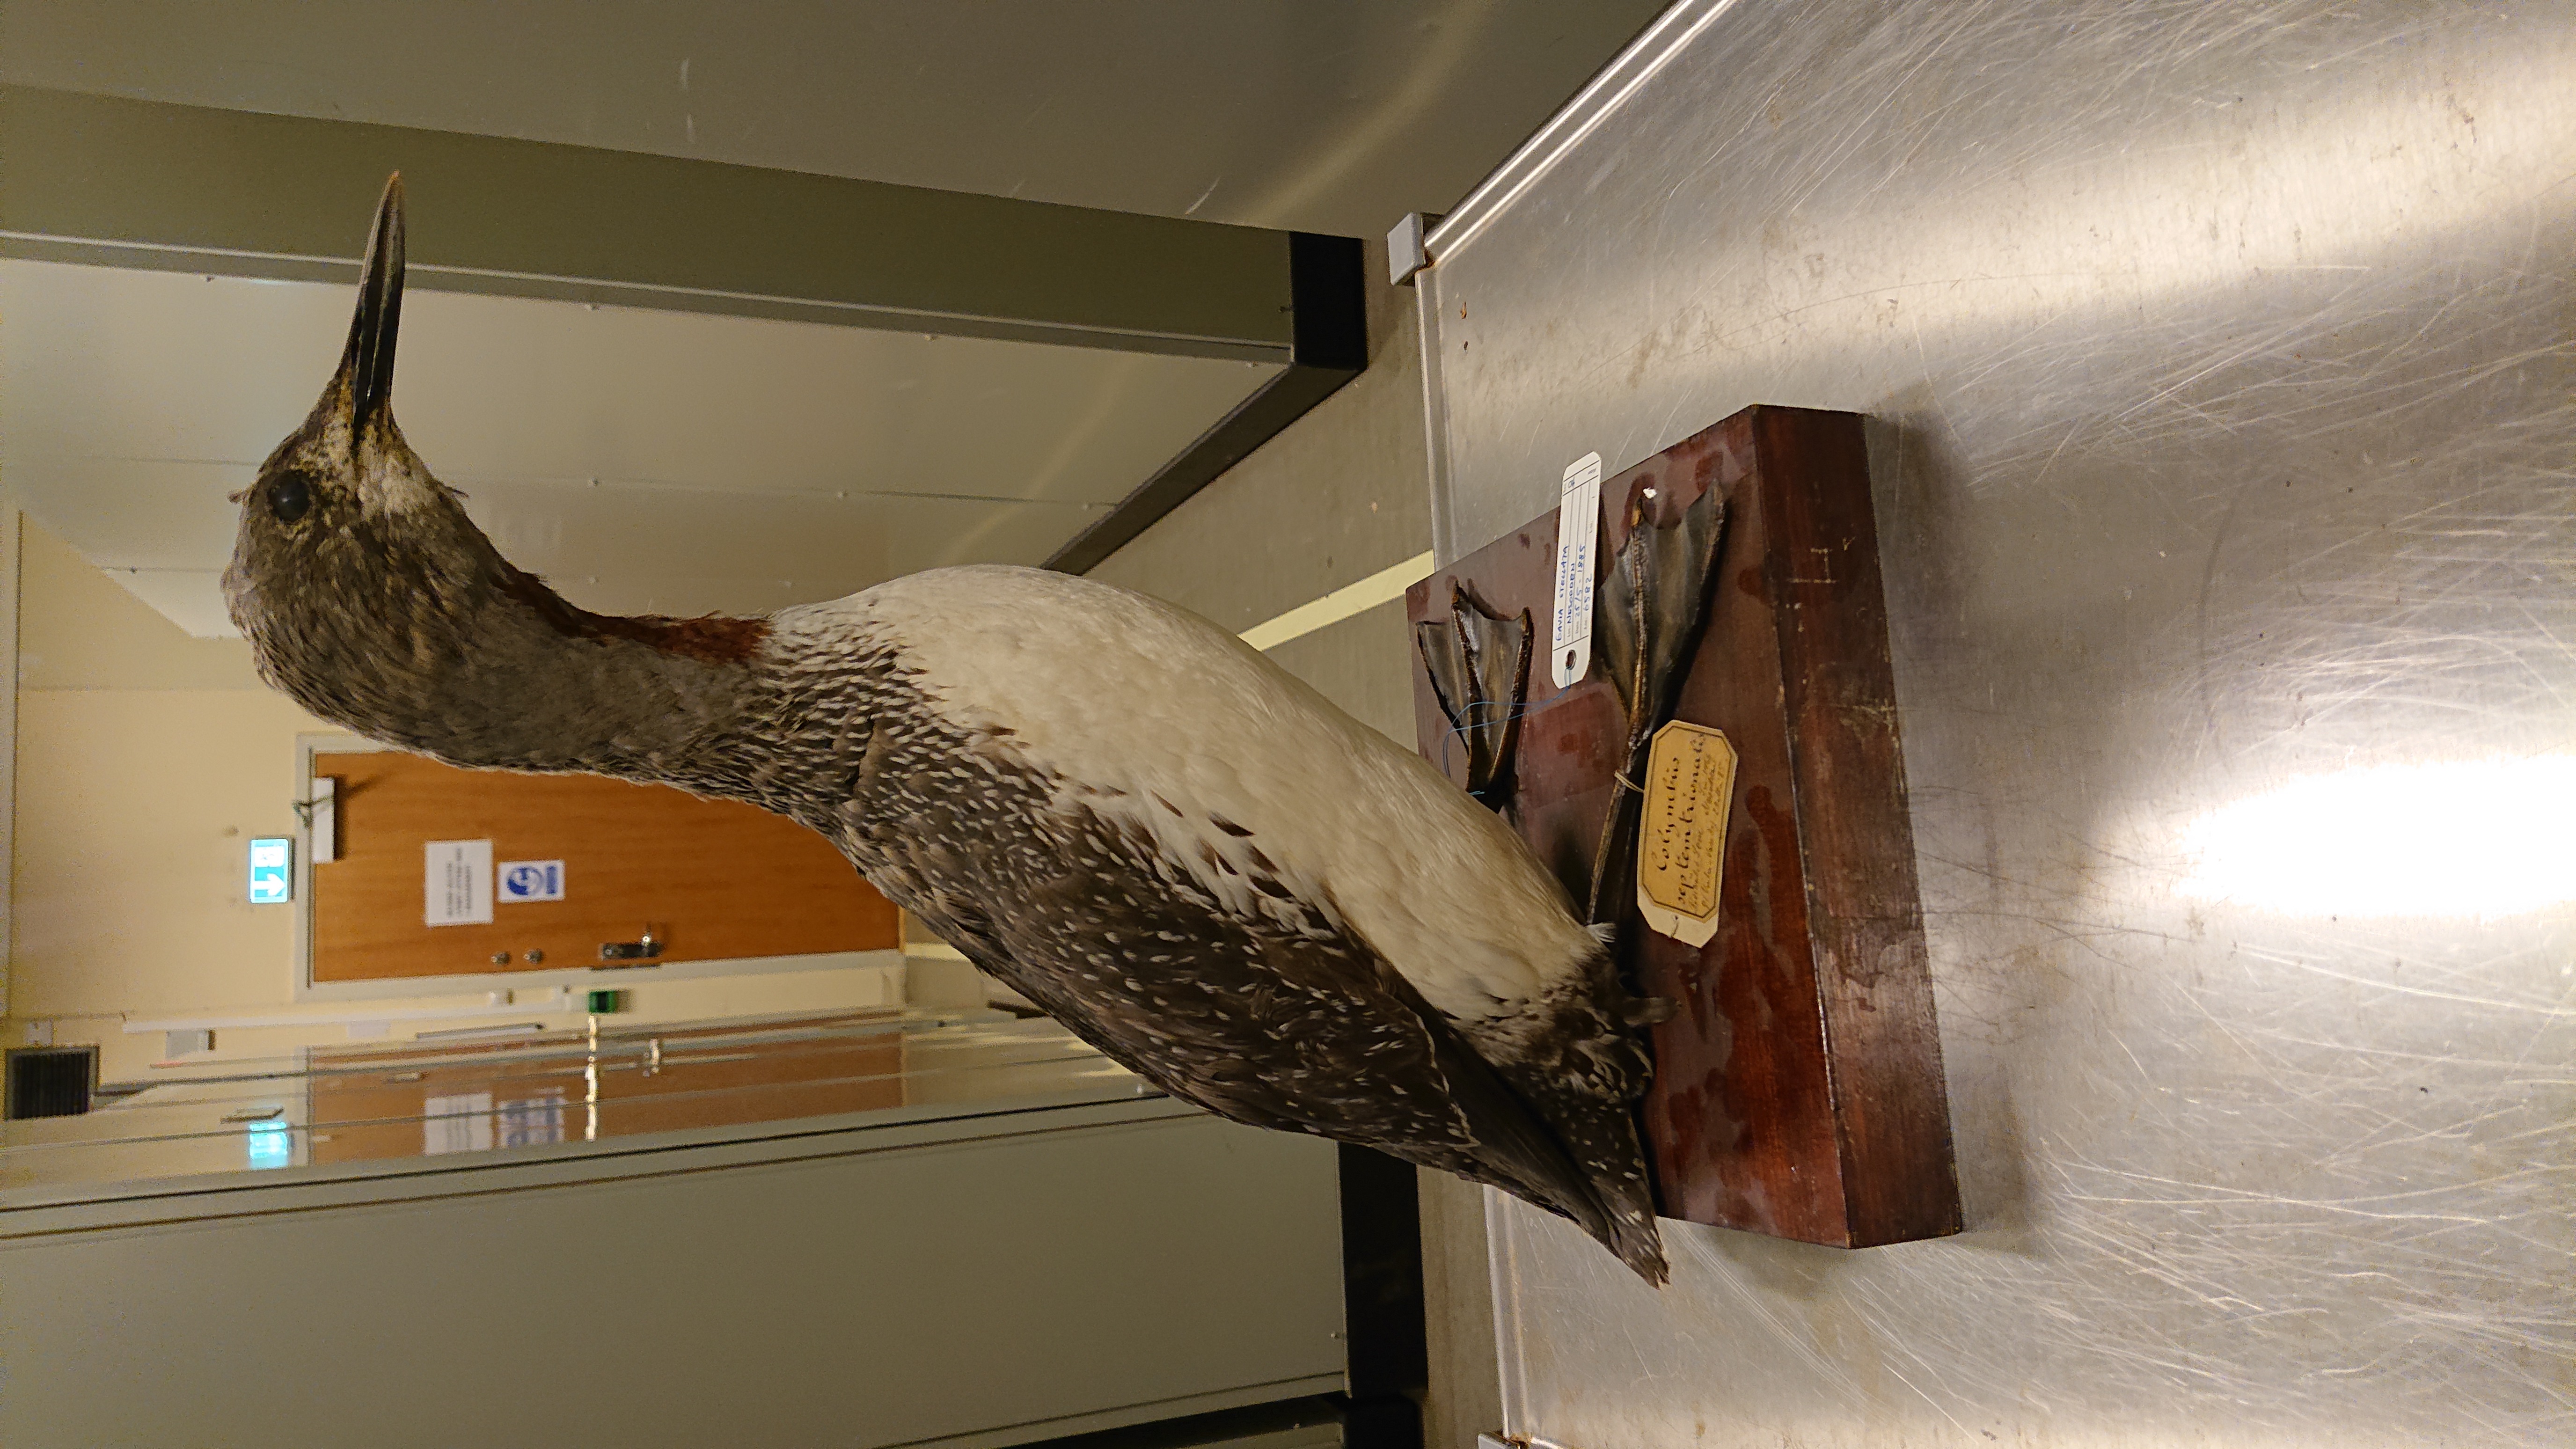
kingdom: Animalia
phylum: Chordata
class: Aves
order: Gaviiformes
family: Gaviidae
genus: Gavia
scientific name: Gavia stellata
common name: Red-throated loon
